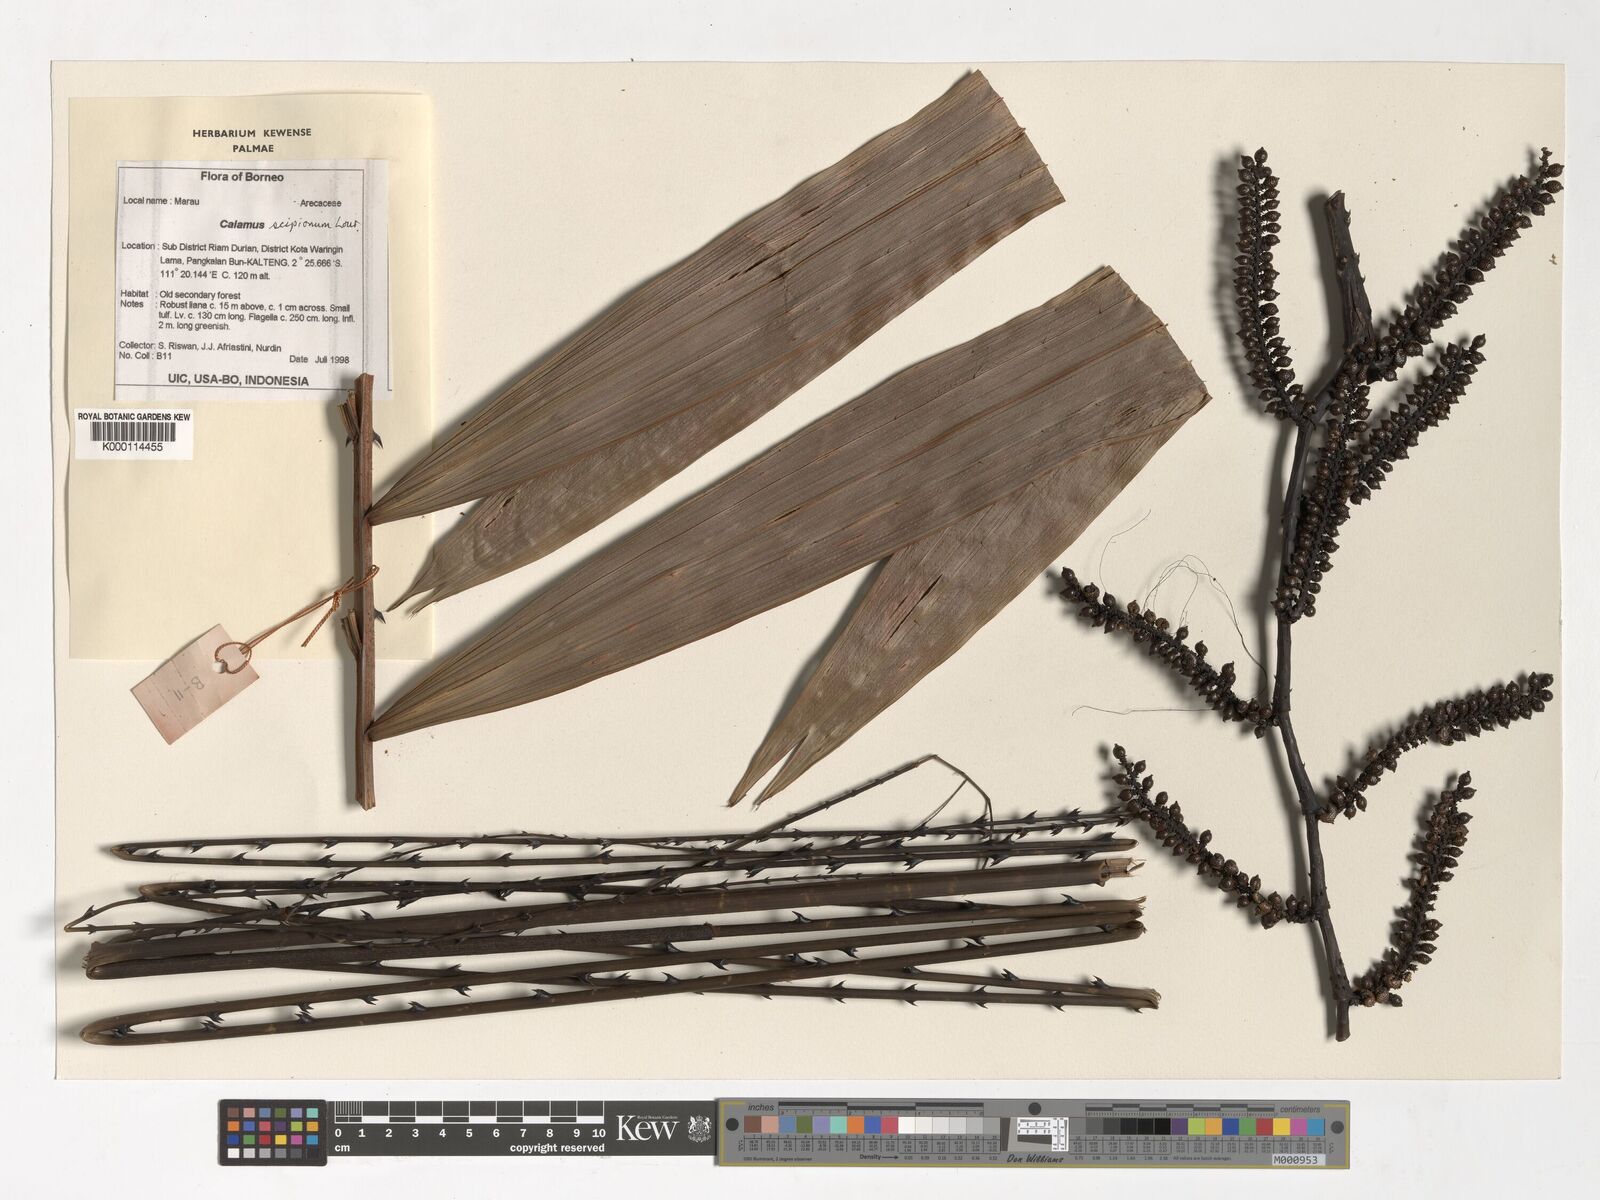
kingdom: Plantae
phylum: Tracheophyta
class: Liliopsida
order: Arecales
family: Arecaceae
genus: Calamus
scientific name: Calamus scipionum
